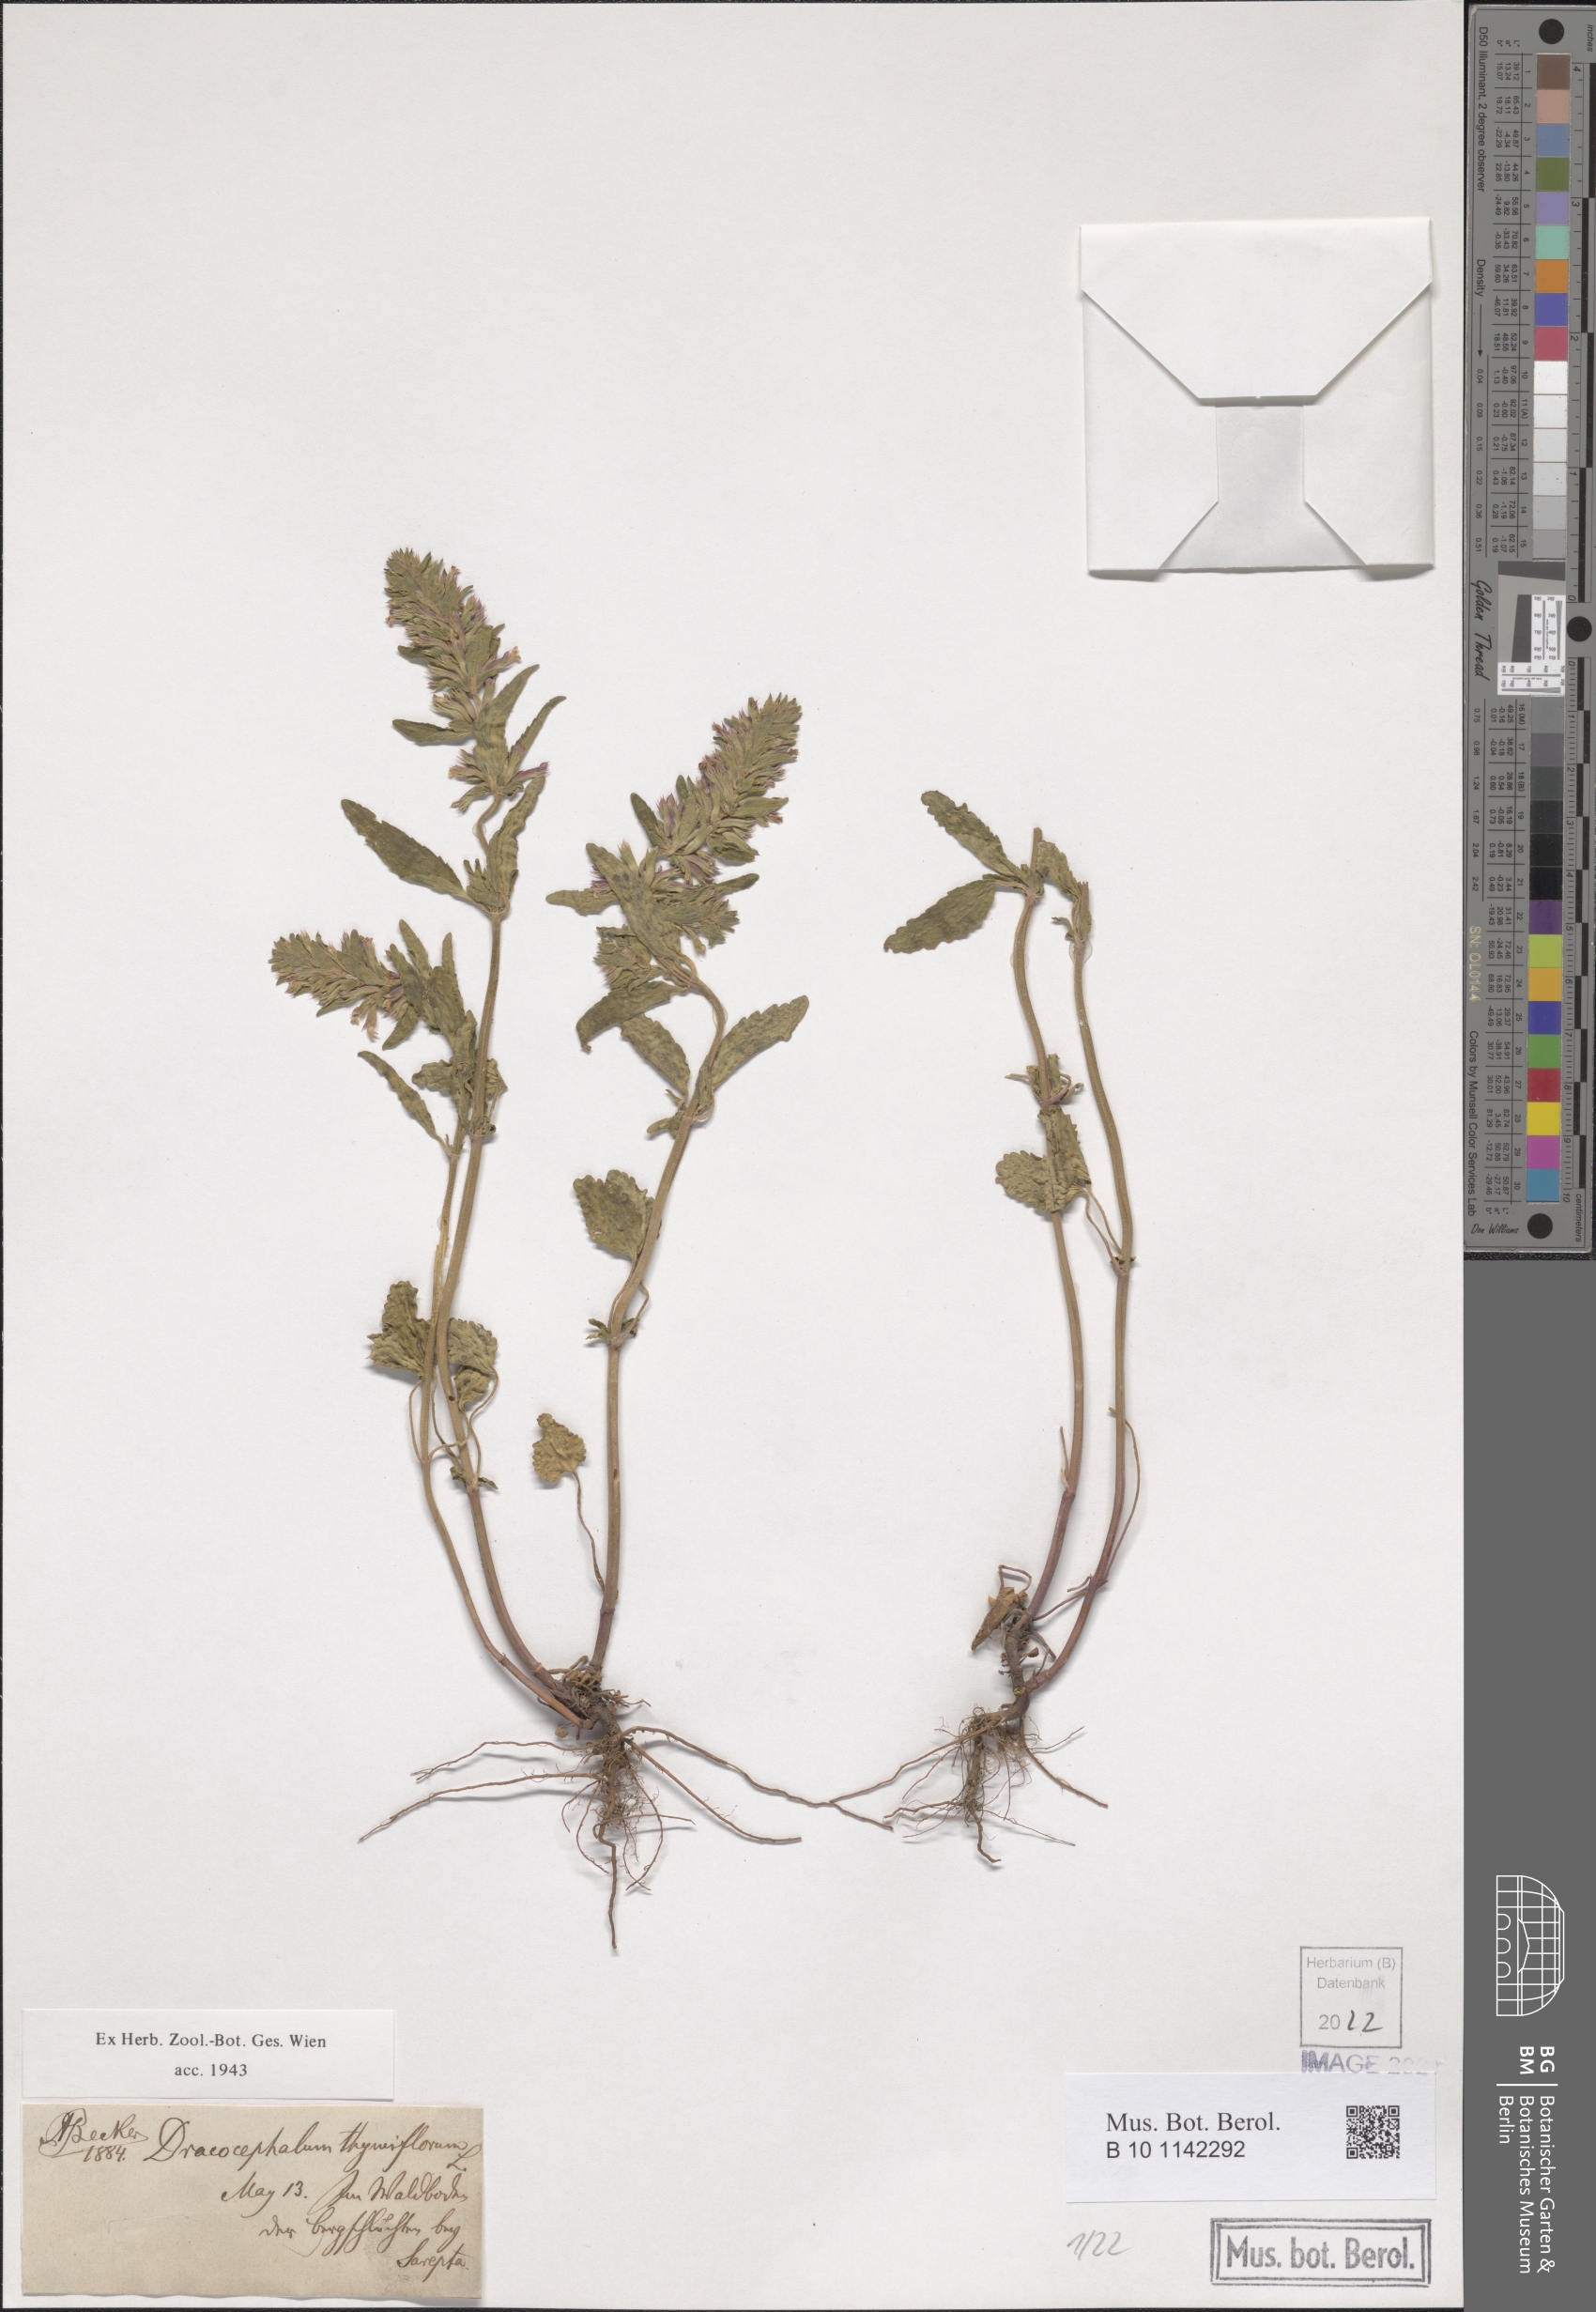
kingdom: Plantae
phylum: Tracheophyta
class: Magnoliopsida
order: Lamiales
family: Lamiaceae
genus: Dracocephalum
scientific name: Dracocephalum thymiflorum
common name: Thymeleaf dragonhead
